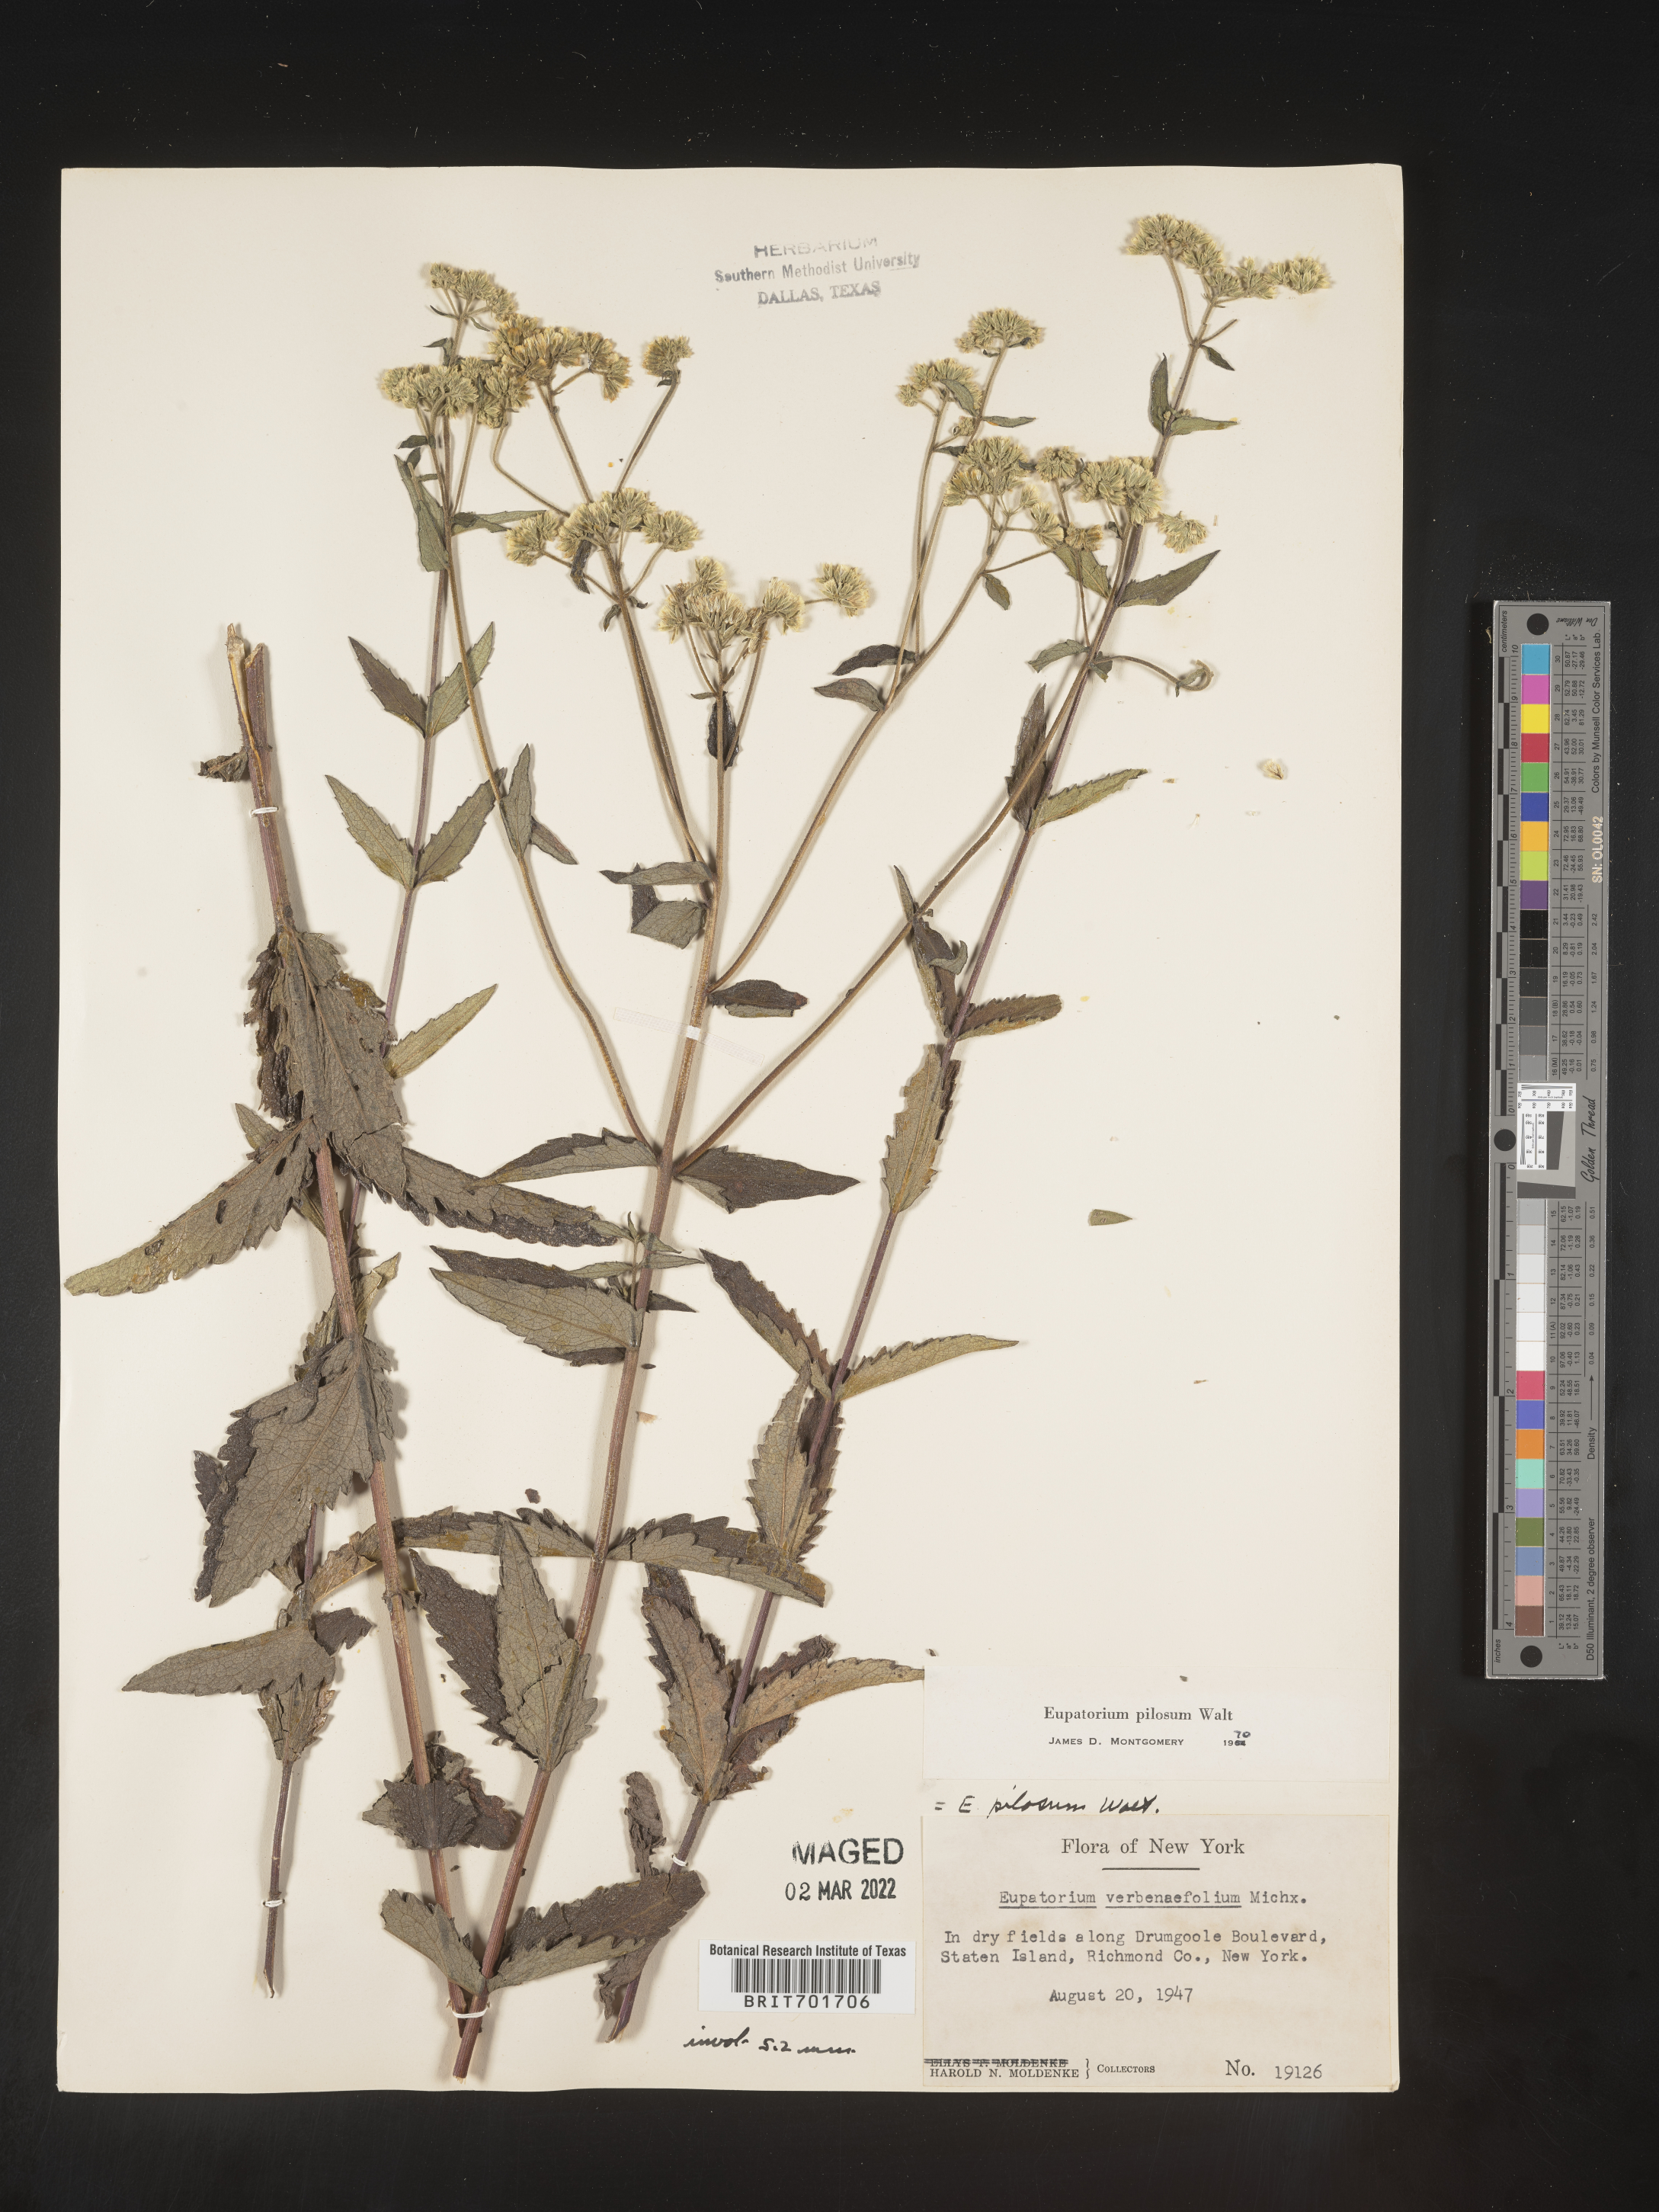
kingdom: Plantae
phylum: Tracheophyta
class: Magnoliopsida
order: Asterales
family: Asteraceae
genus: Eupatorium
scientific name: Eupatorium pilosum
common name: Rough boneset
